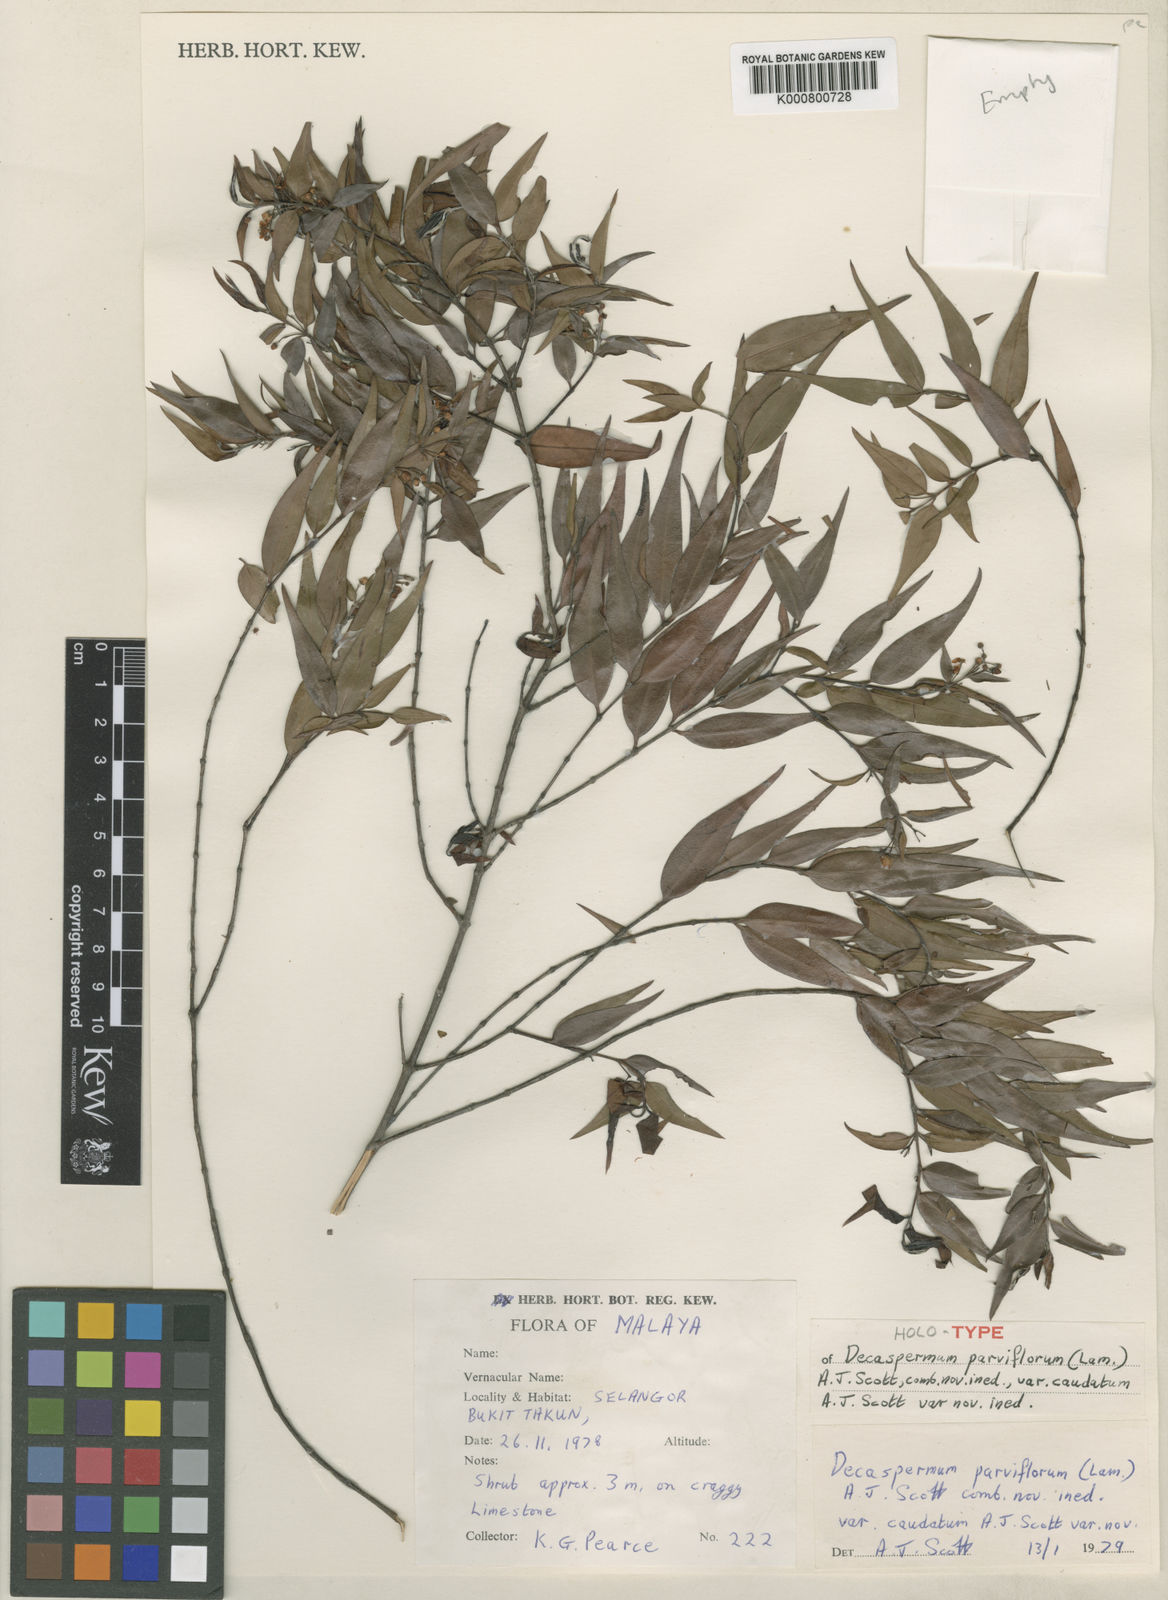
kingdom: Plantae
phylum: Tracheophyta
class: Magnoliopsida
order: Myrtales
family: Myrtaceae
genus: Decaspermum
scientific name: Decaspermum parviflorum
